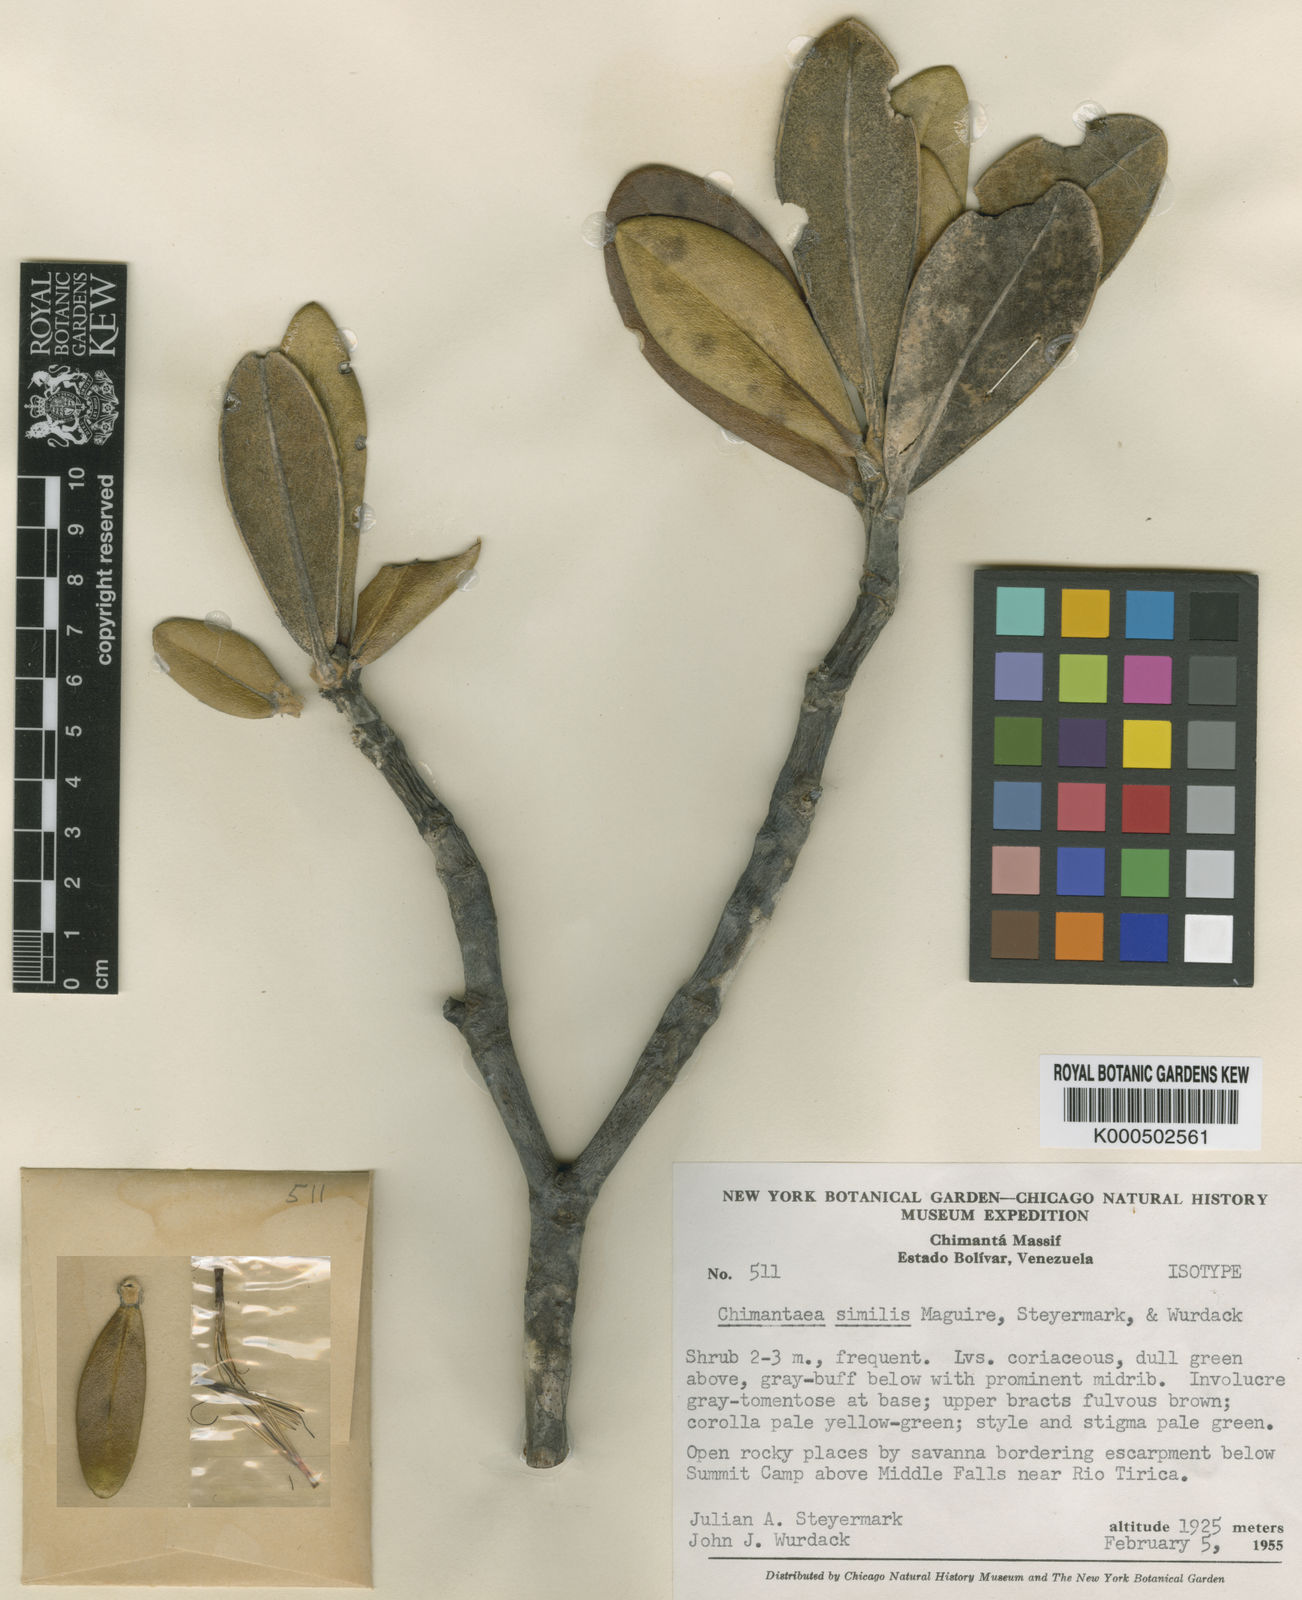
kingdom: Plantae
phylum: Tracheophyta
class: Magnoliopsida
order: Asterales
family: Asteraceae
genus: Chimantaea
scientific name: Chimantaea cinerea
